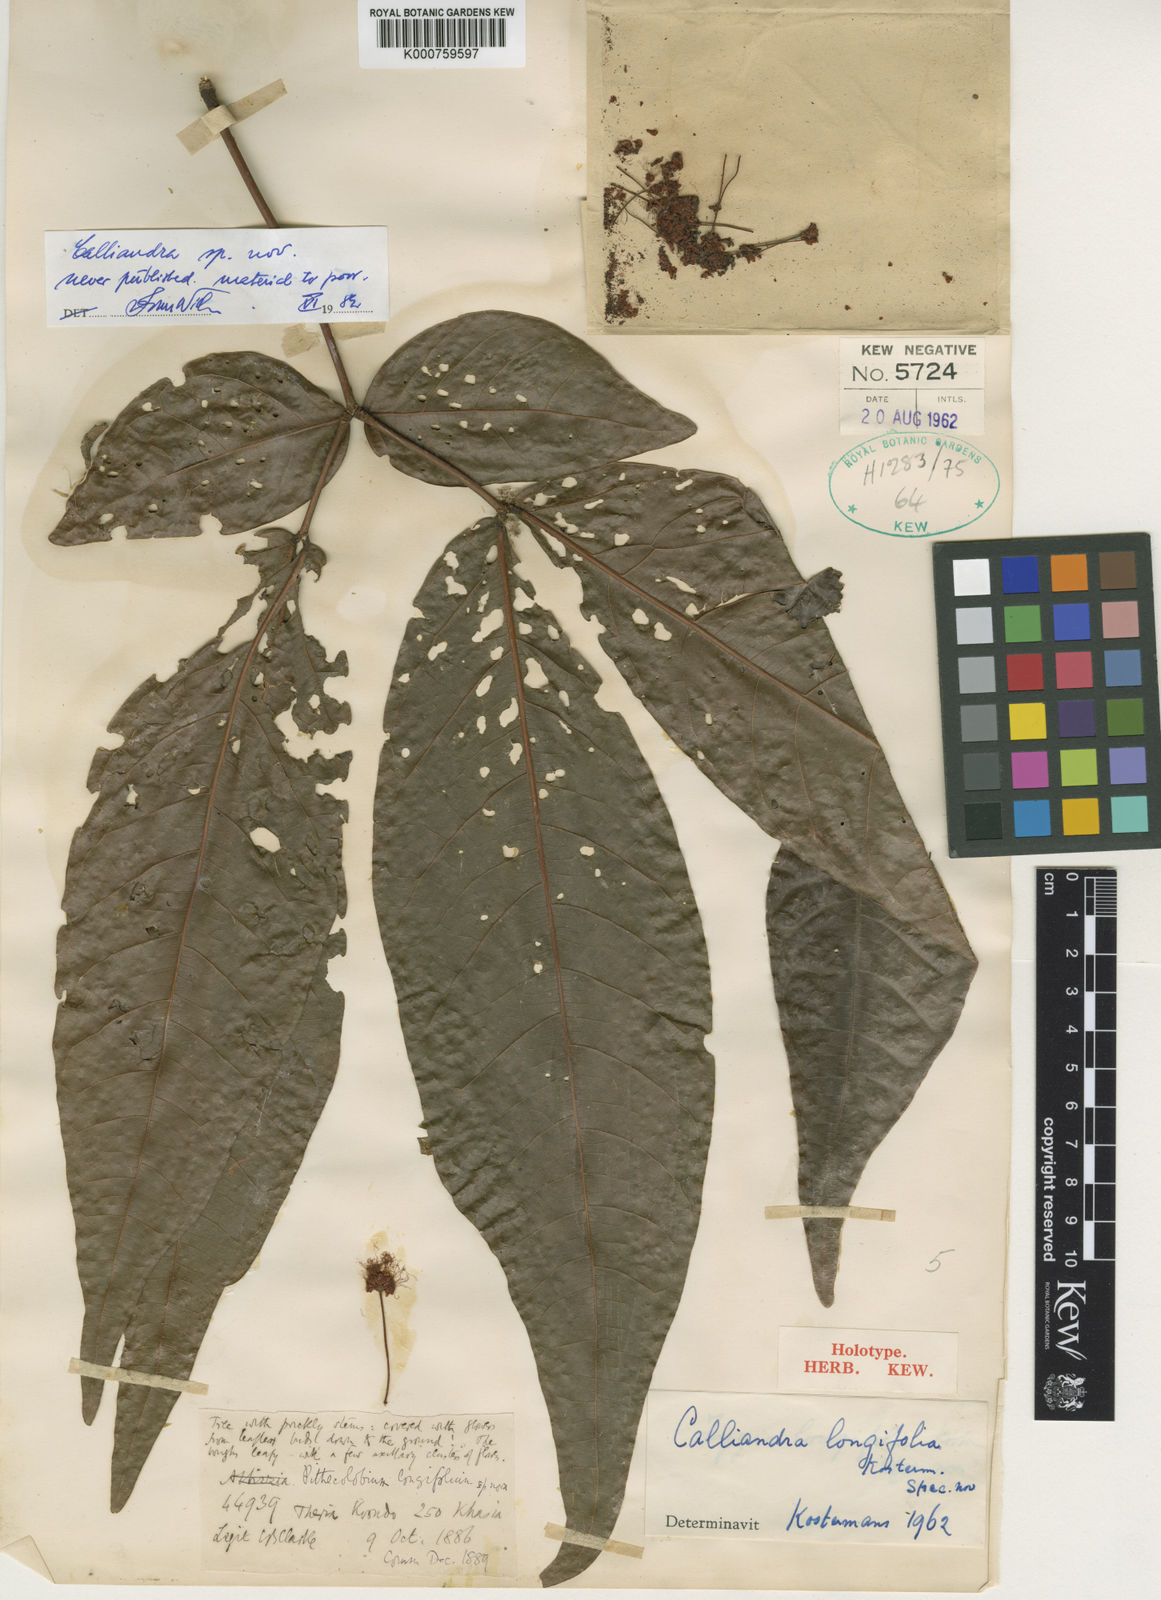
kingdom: Plantae
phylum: Tracheophyta
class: Magnoliopsida
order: Fabales
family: Fabaceae
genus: Archidendron
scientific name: Archidendron conspicuum
